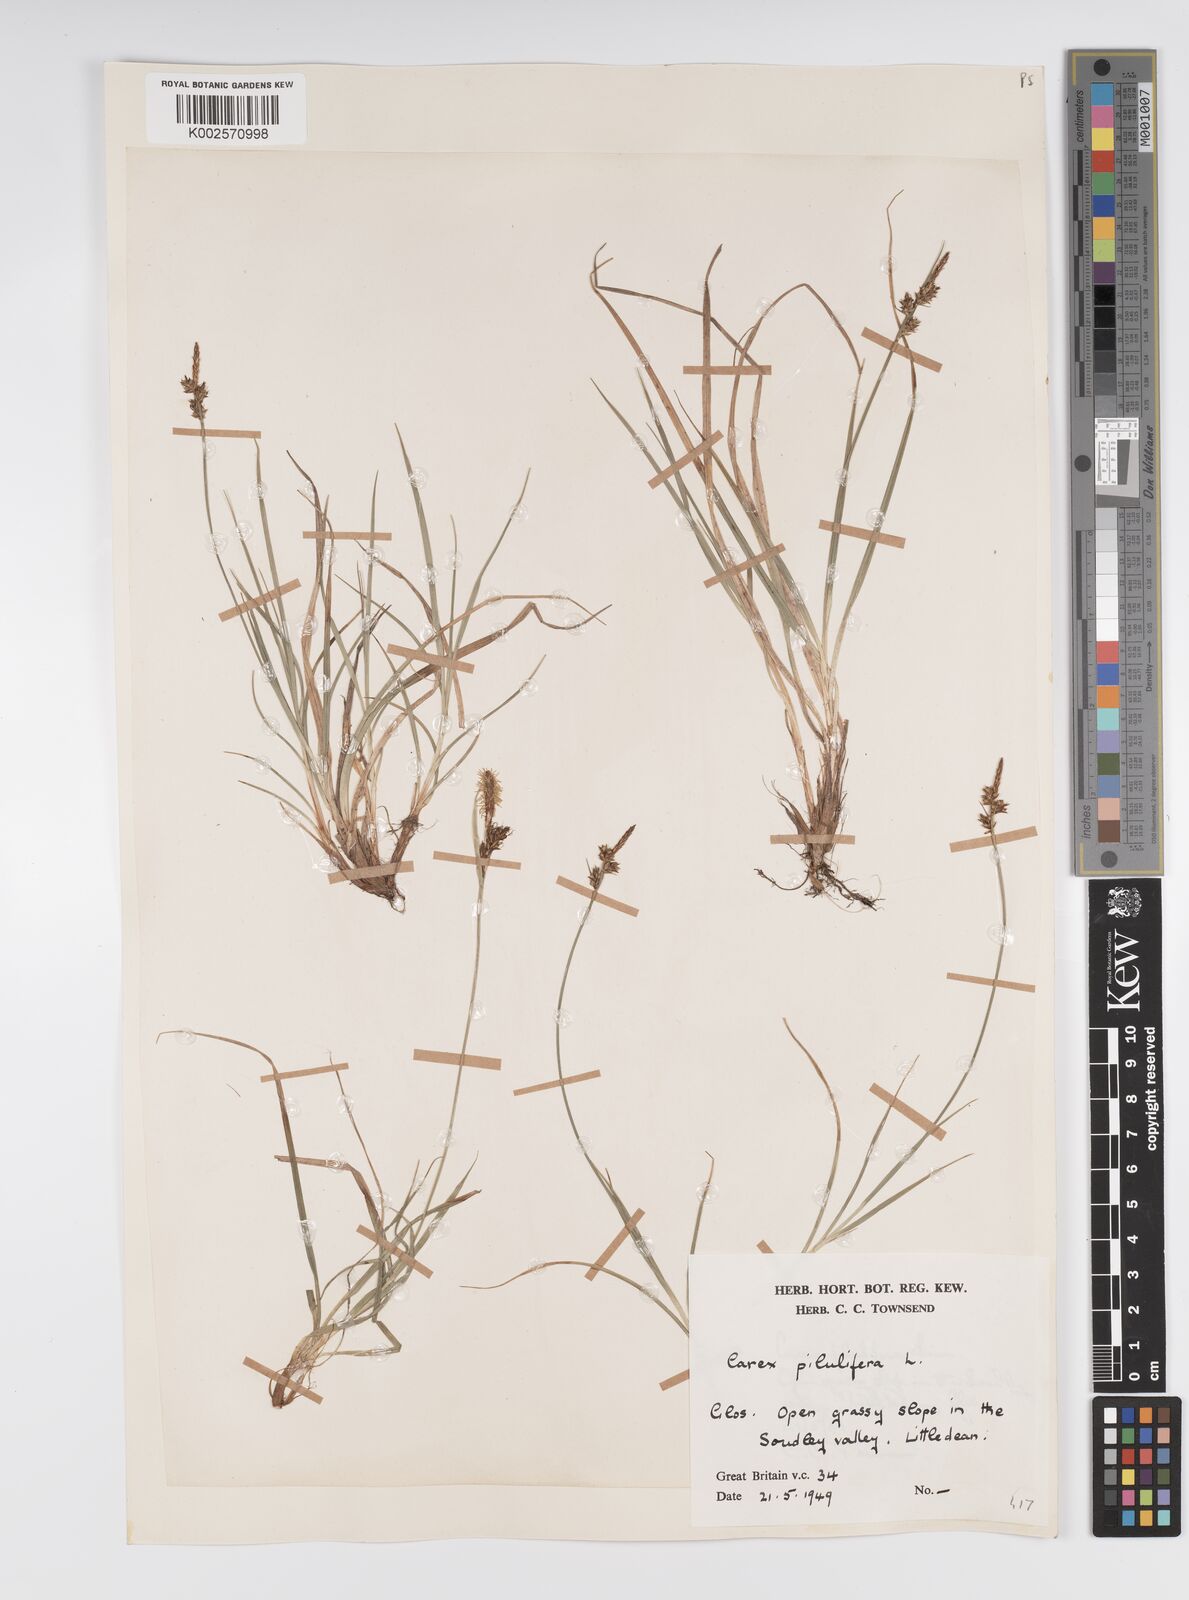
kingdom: Plantae
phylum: Tracheophyta
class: Liliopsida
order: Poales
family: Cyperaceae
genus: Carex
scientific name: Carex praecox
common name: Early sedge
